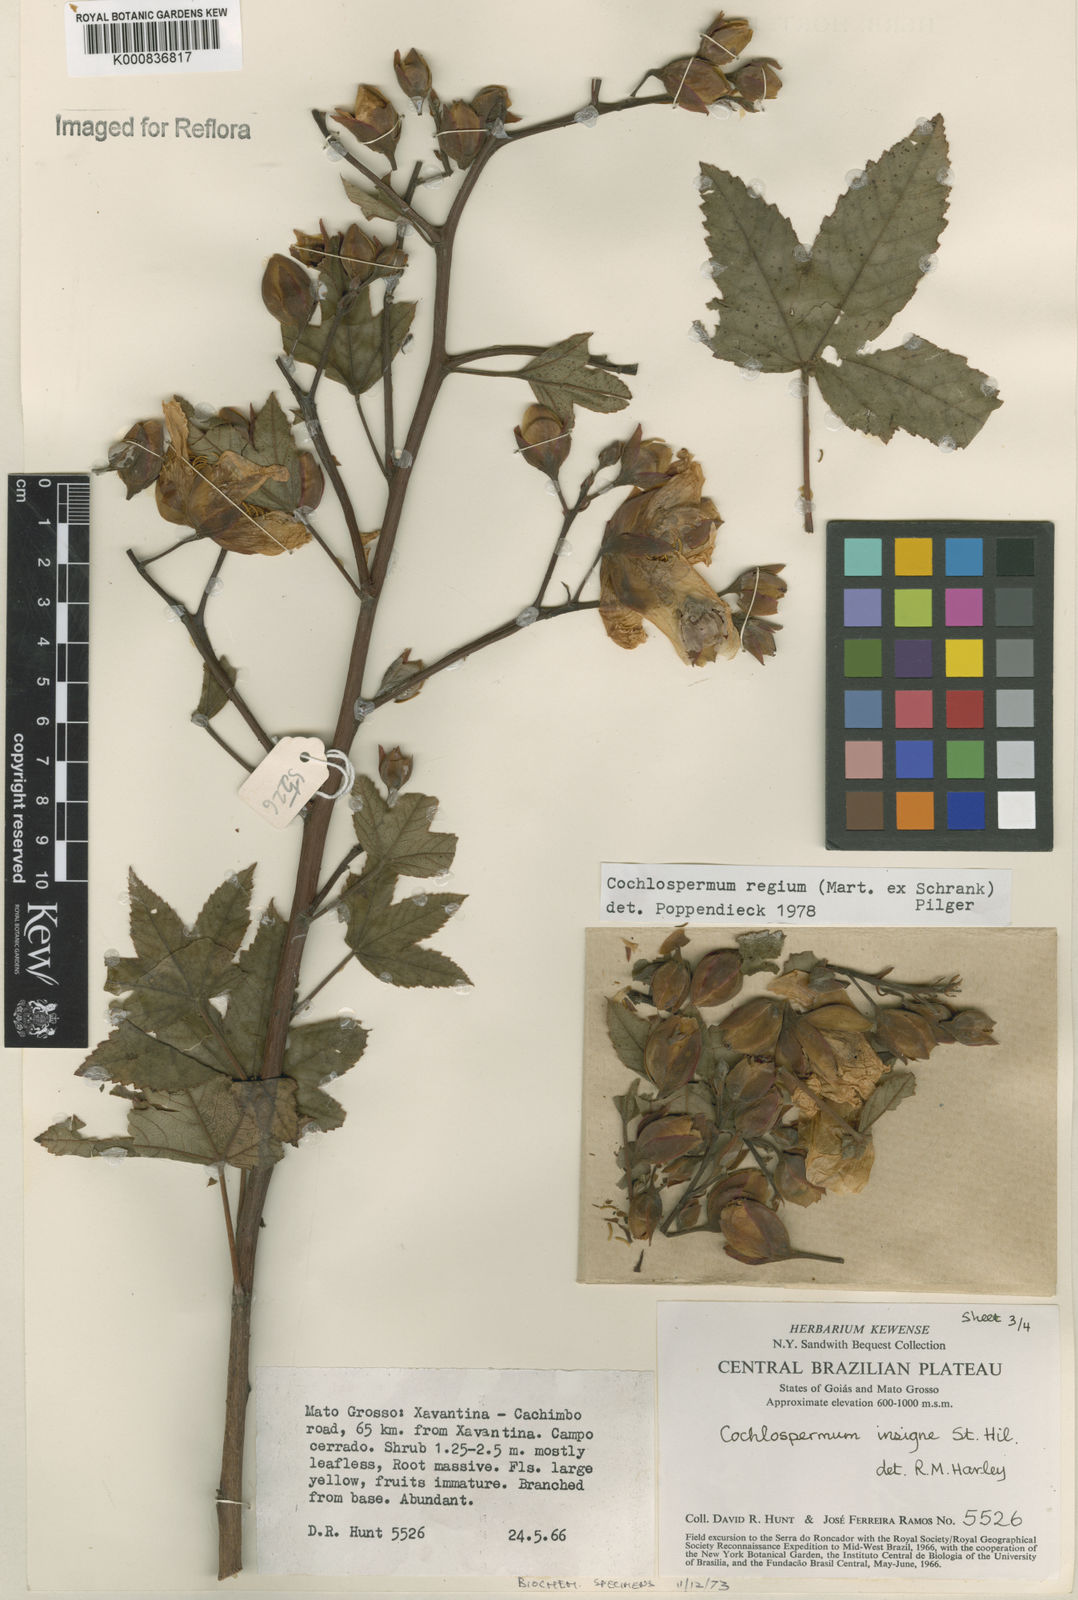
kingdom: Plantae
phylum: Tracheophyta
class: Magnoliopsida
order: Malvales
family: Cochlospermaceae
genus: Cochlospermum
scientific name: Cochlospermum regium
